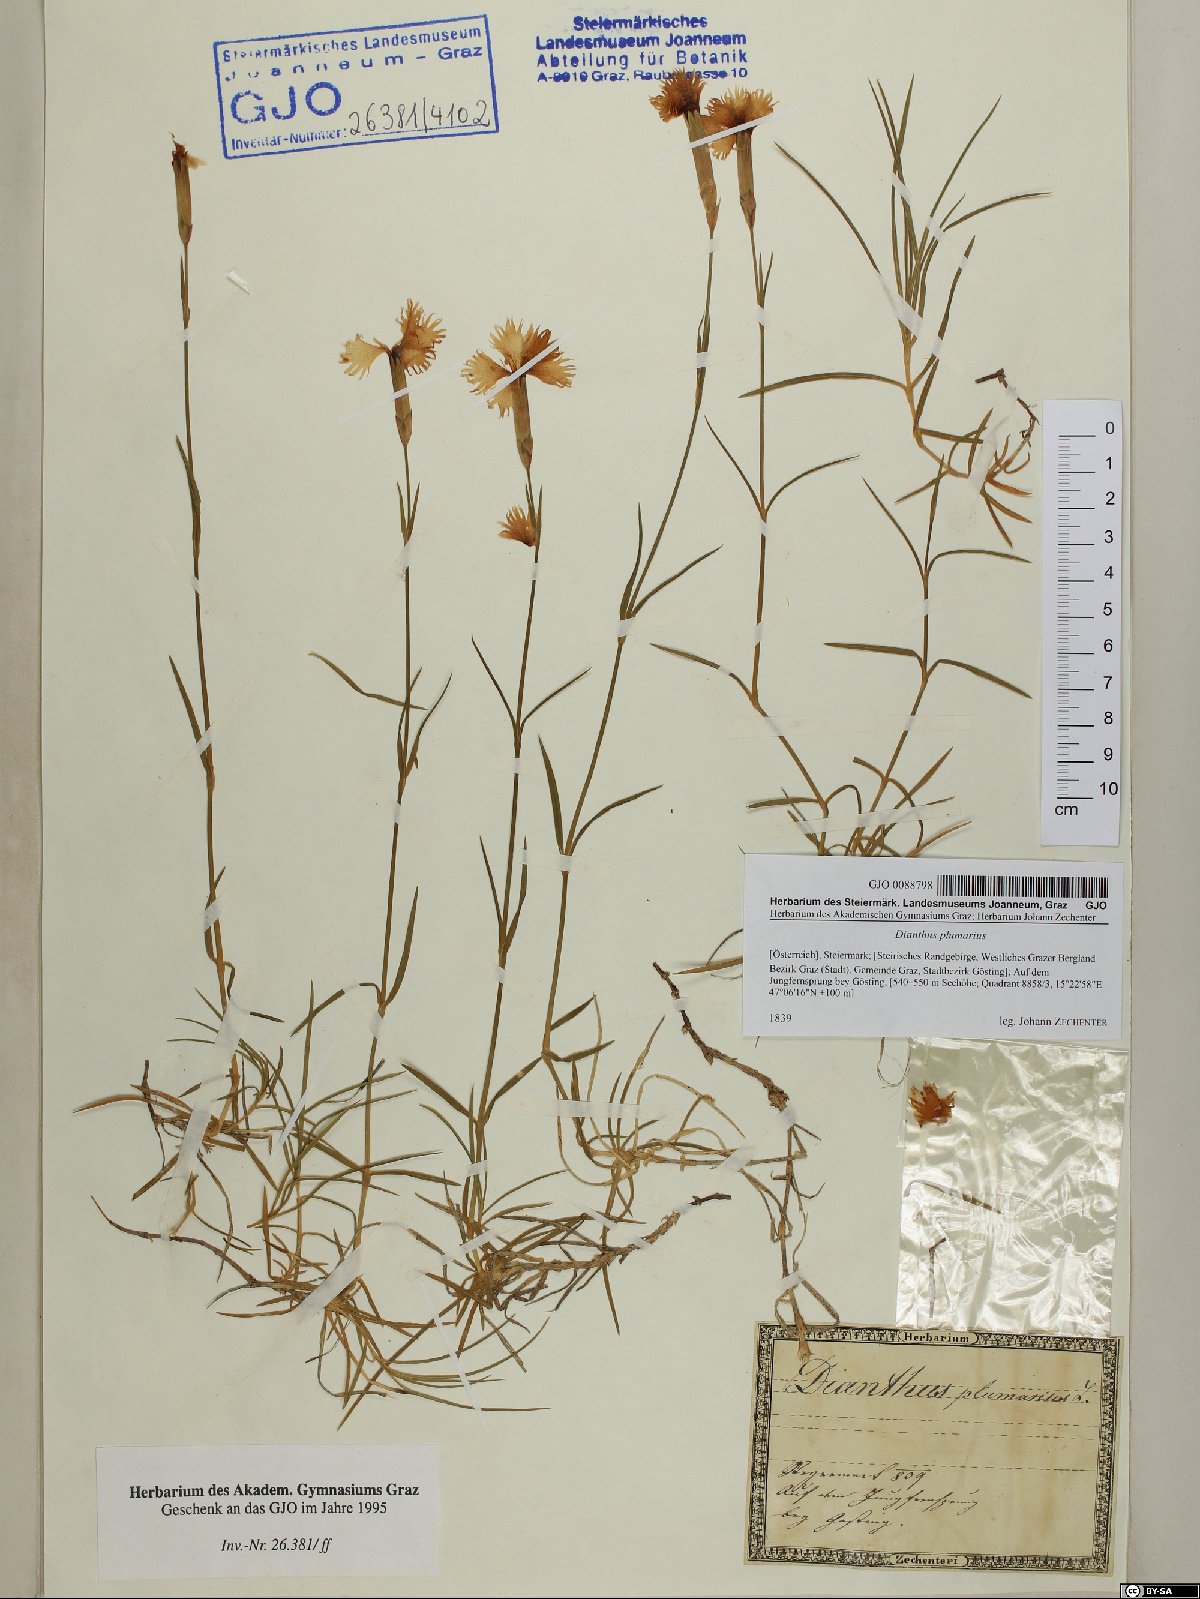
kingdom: Plantae
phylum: Tracheophyta
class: Magnoliopsida
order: Caryophyllales
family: Caryophyllaceae
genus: Dianthus
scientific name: Dianthus plumarius
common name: Pink
